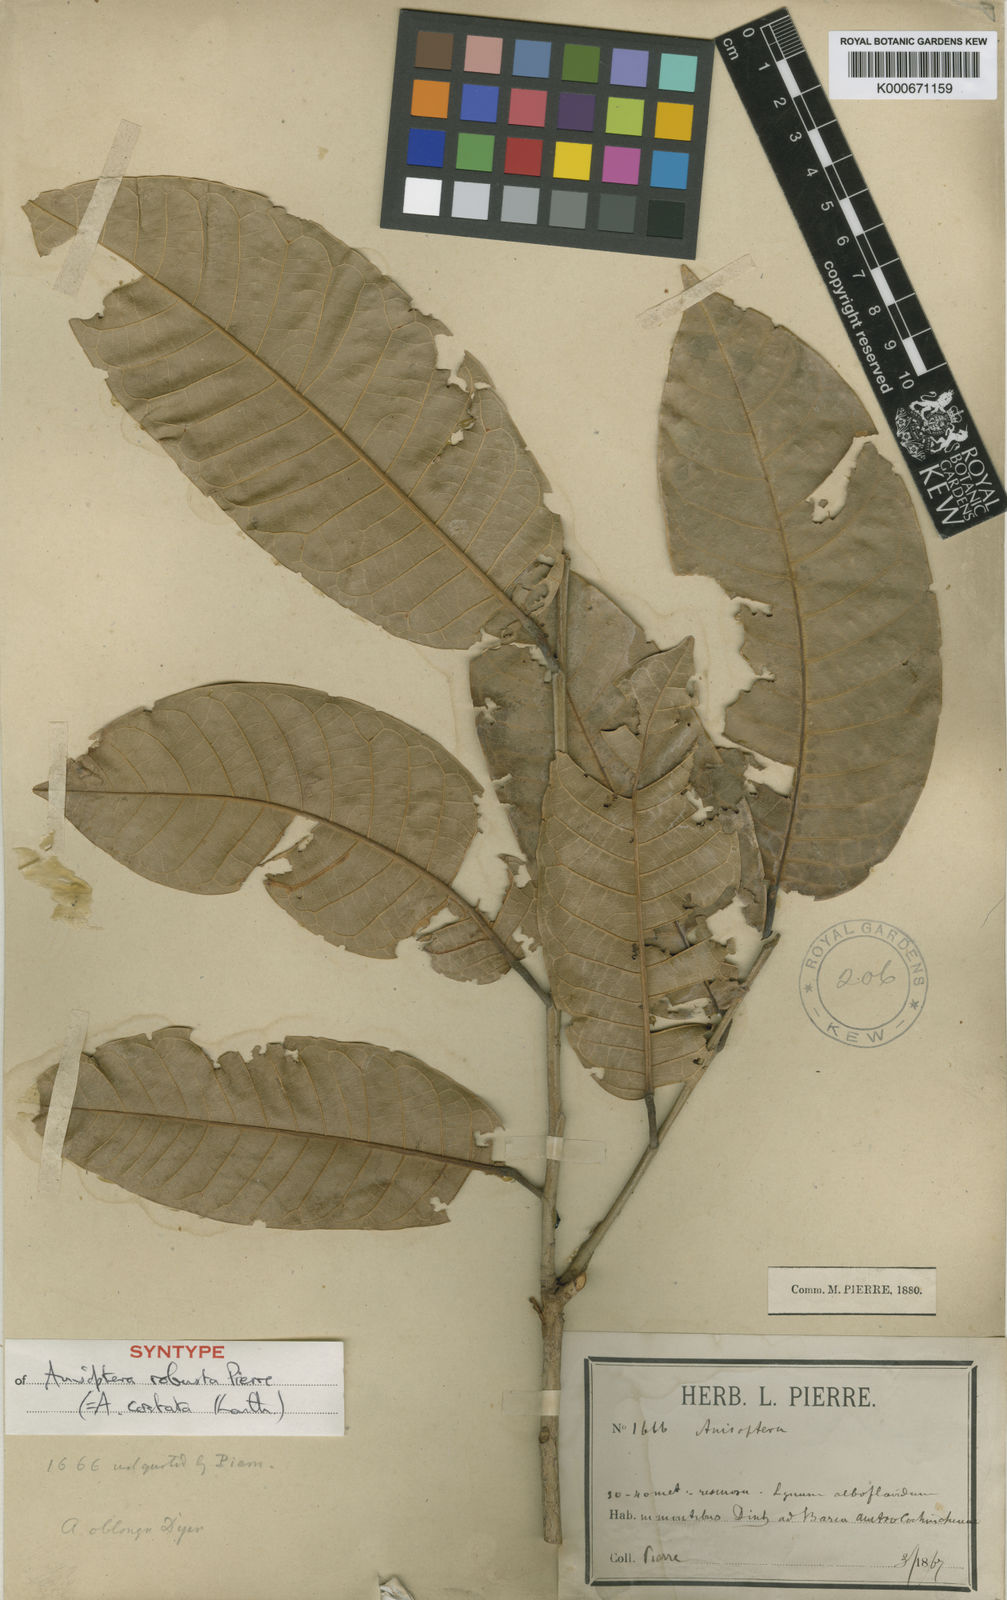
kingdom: Plantae
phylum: Tracheophyta
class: Magnoliopsida
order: Malvales
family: Dipterocarpaceae
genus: Anisoptera
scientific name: Anisoptera costata
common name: Mersawa
